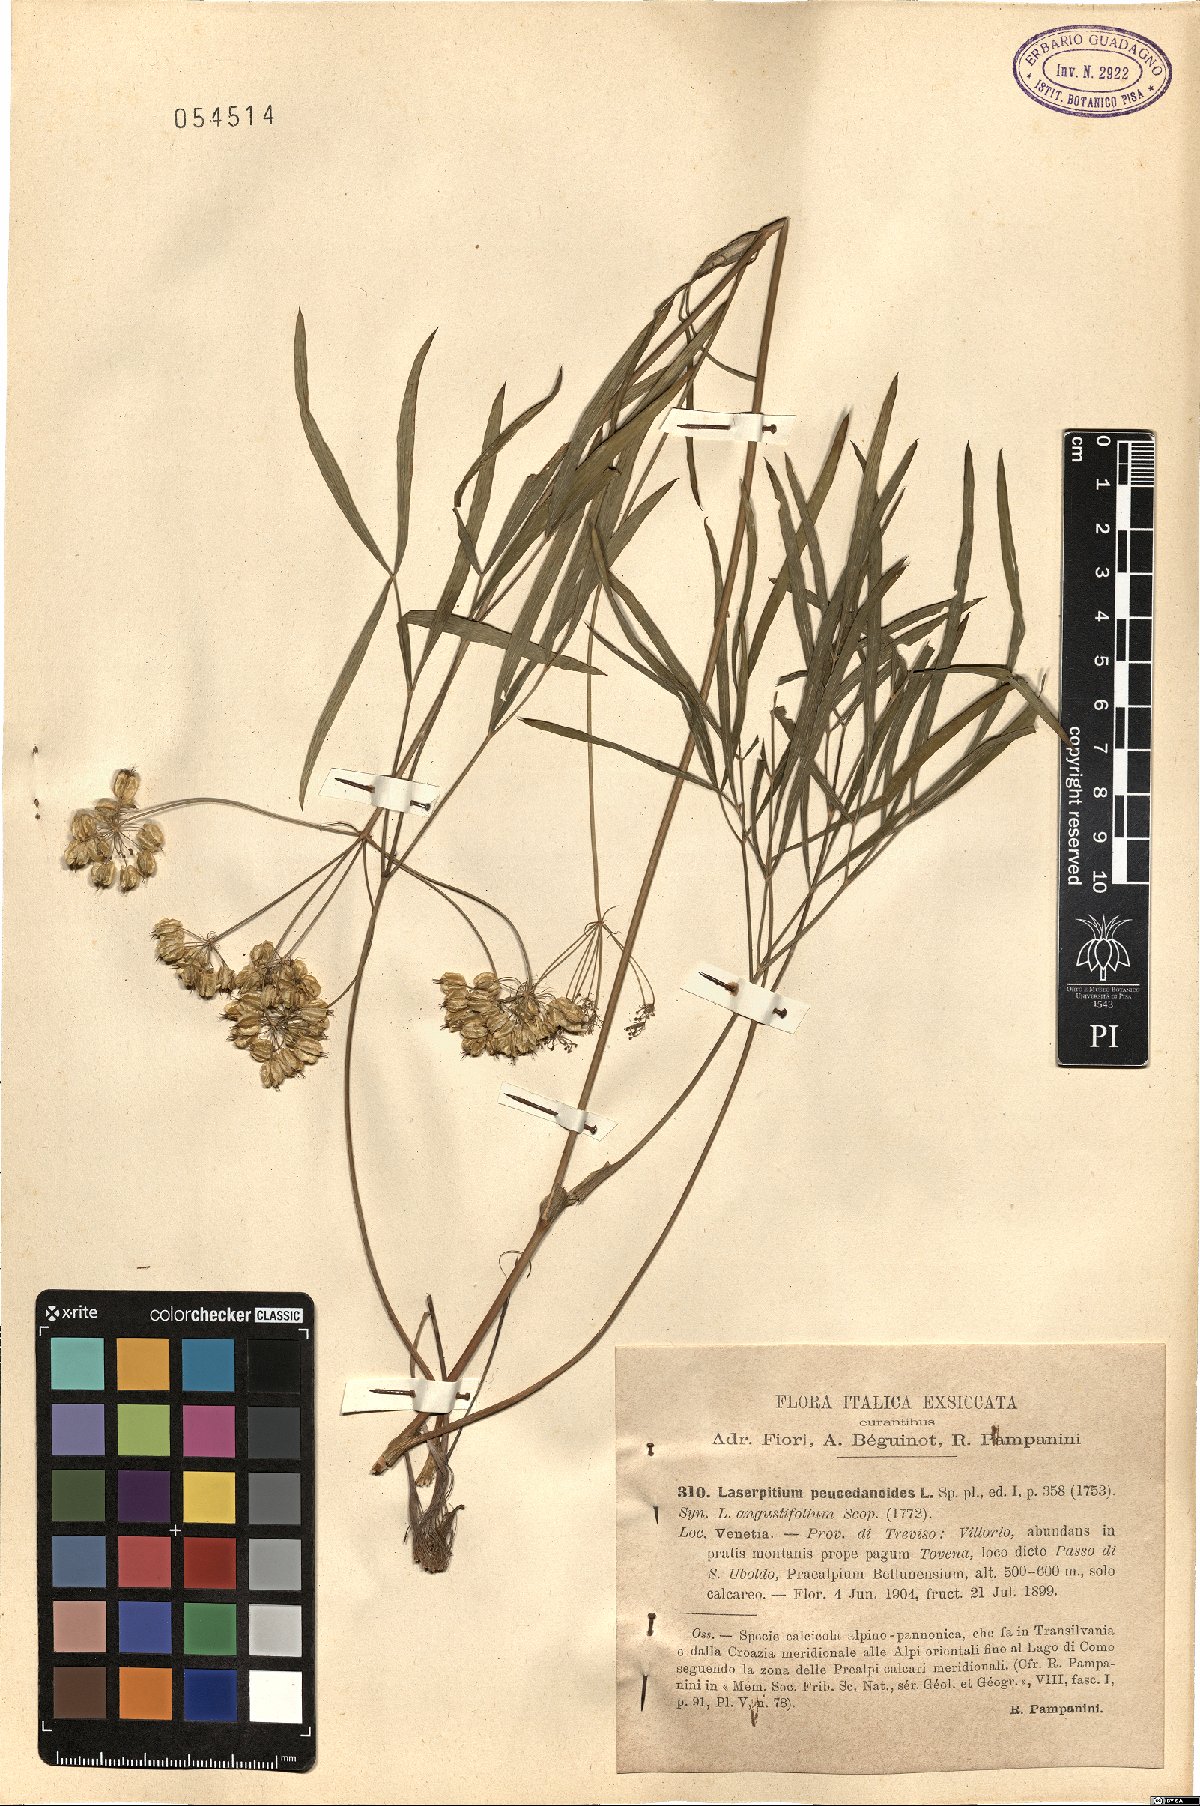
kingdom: Plantae
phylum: Tracheophyta
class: Magnoliopsida
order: Apiales
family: Apiaceae
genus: Laserpitium
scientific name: Laserpitium peucedanoides
